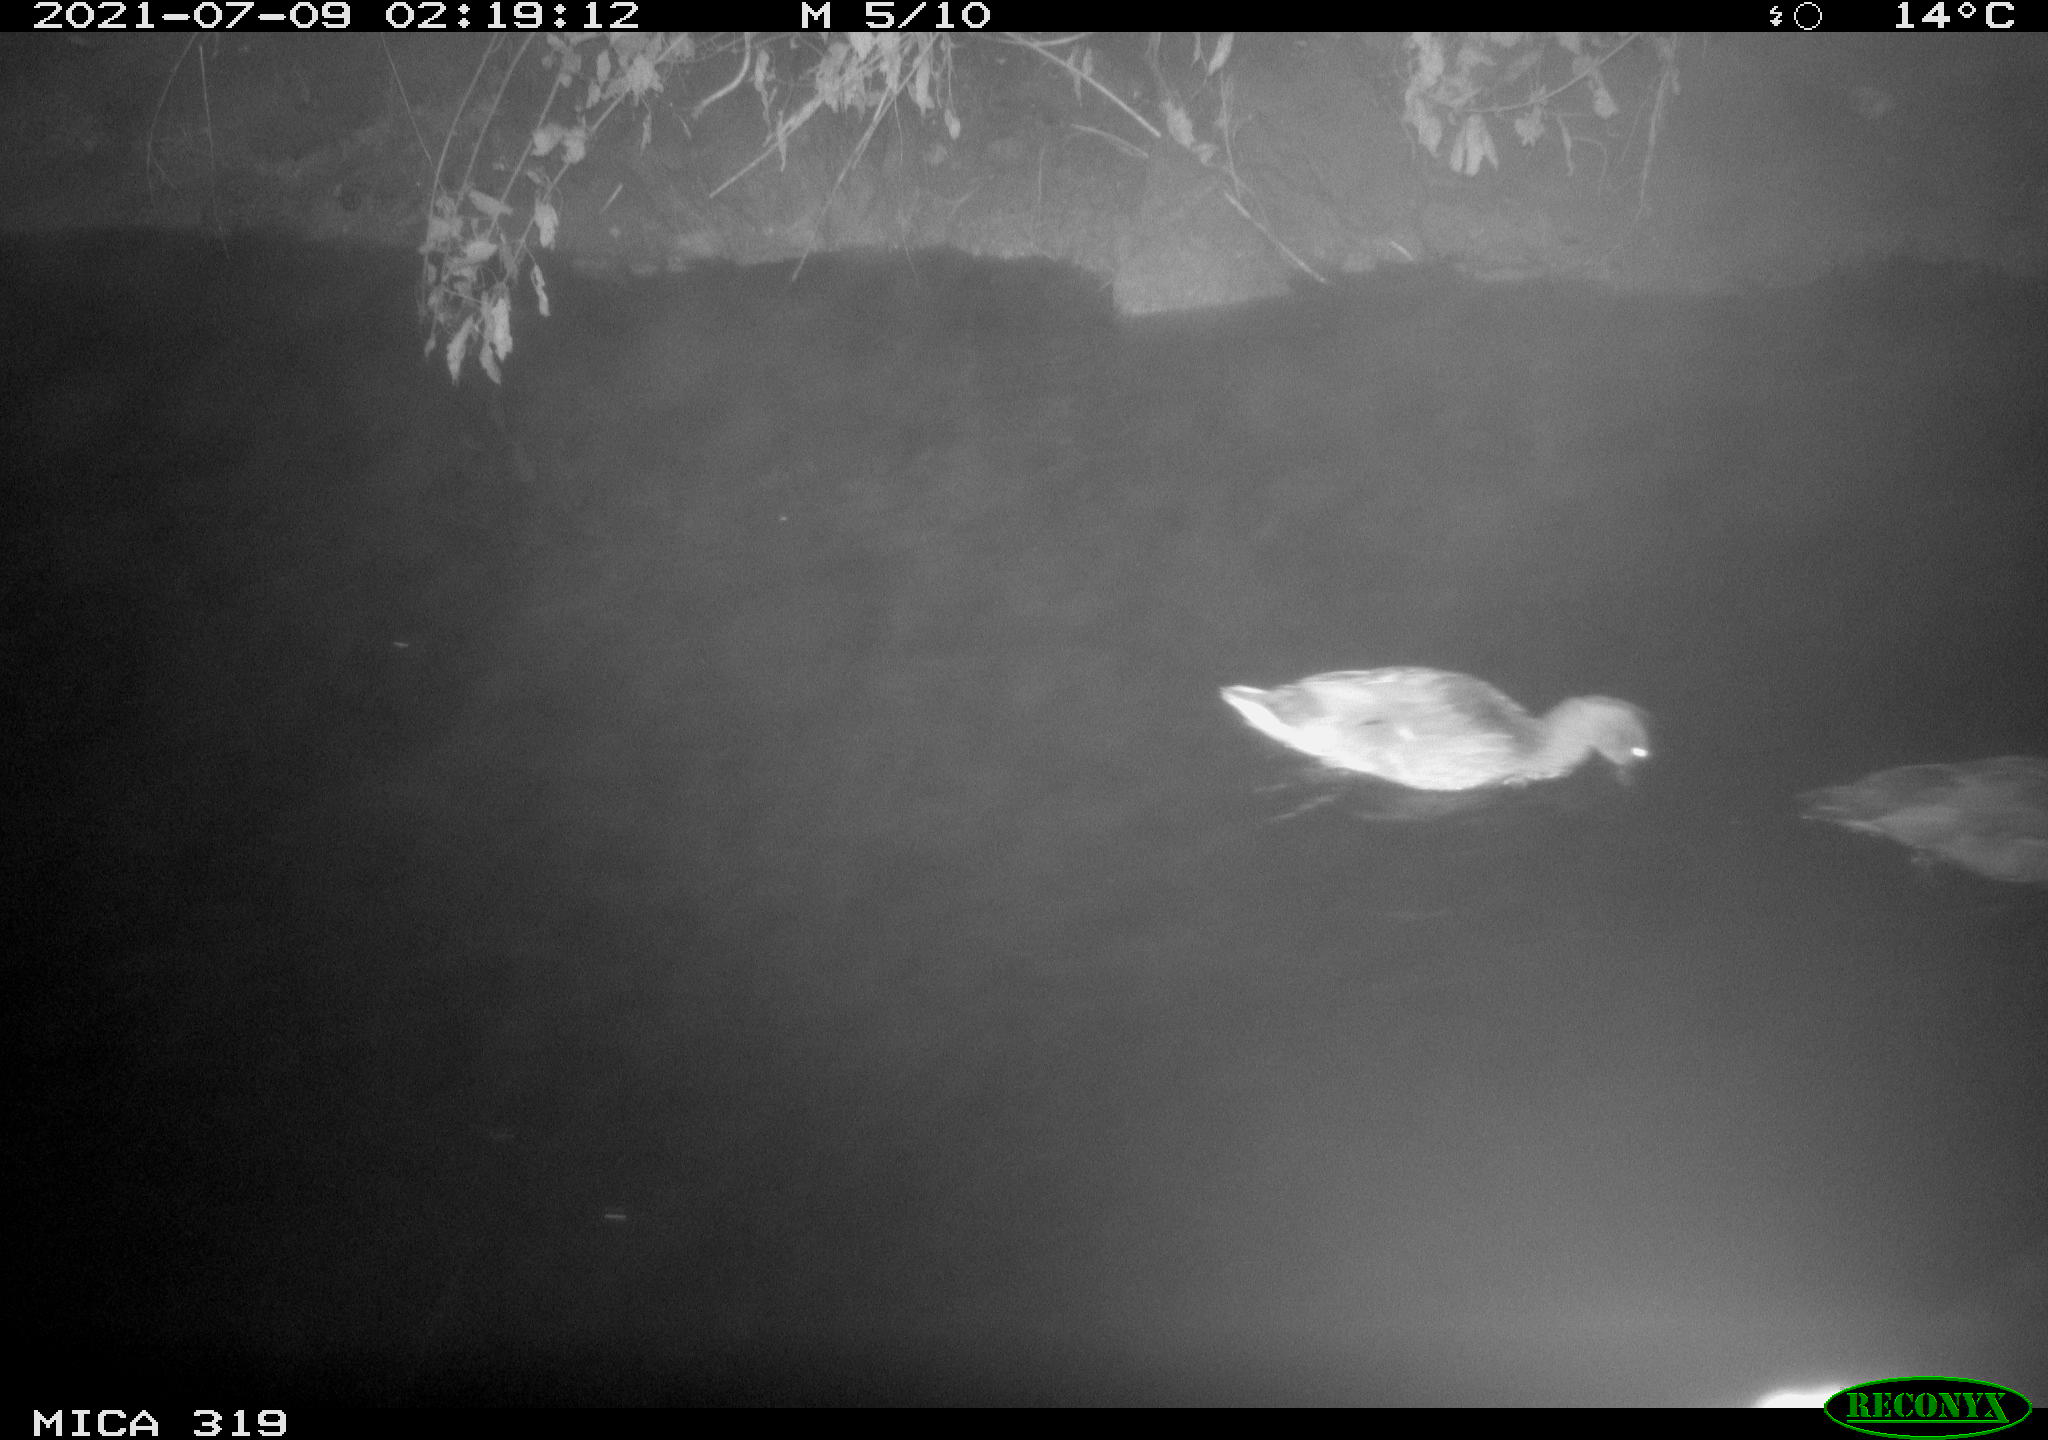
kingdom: Animalia
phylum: Chordata
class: Aves
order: Anseriformes
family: Anatidae
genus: Anas
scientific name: Anas platyrhynchos
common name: Mallard
